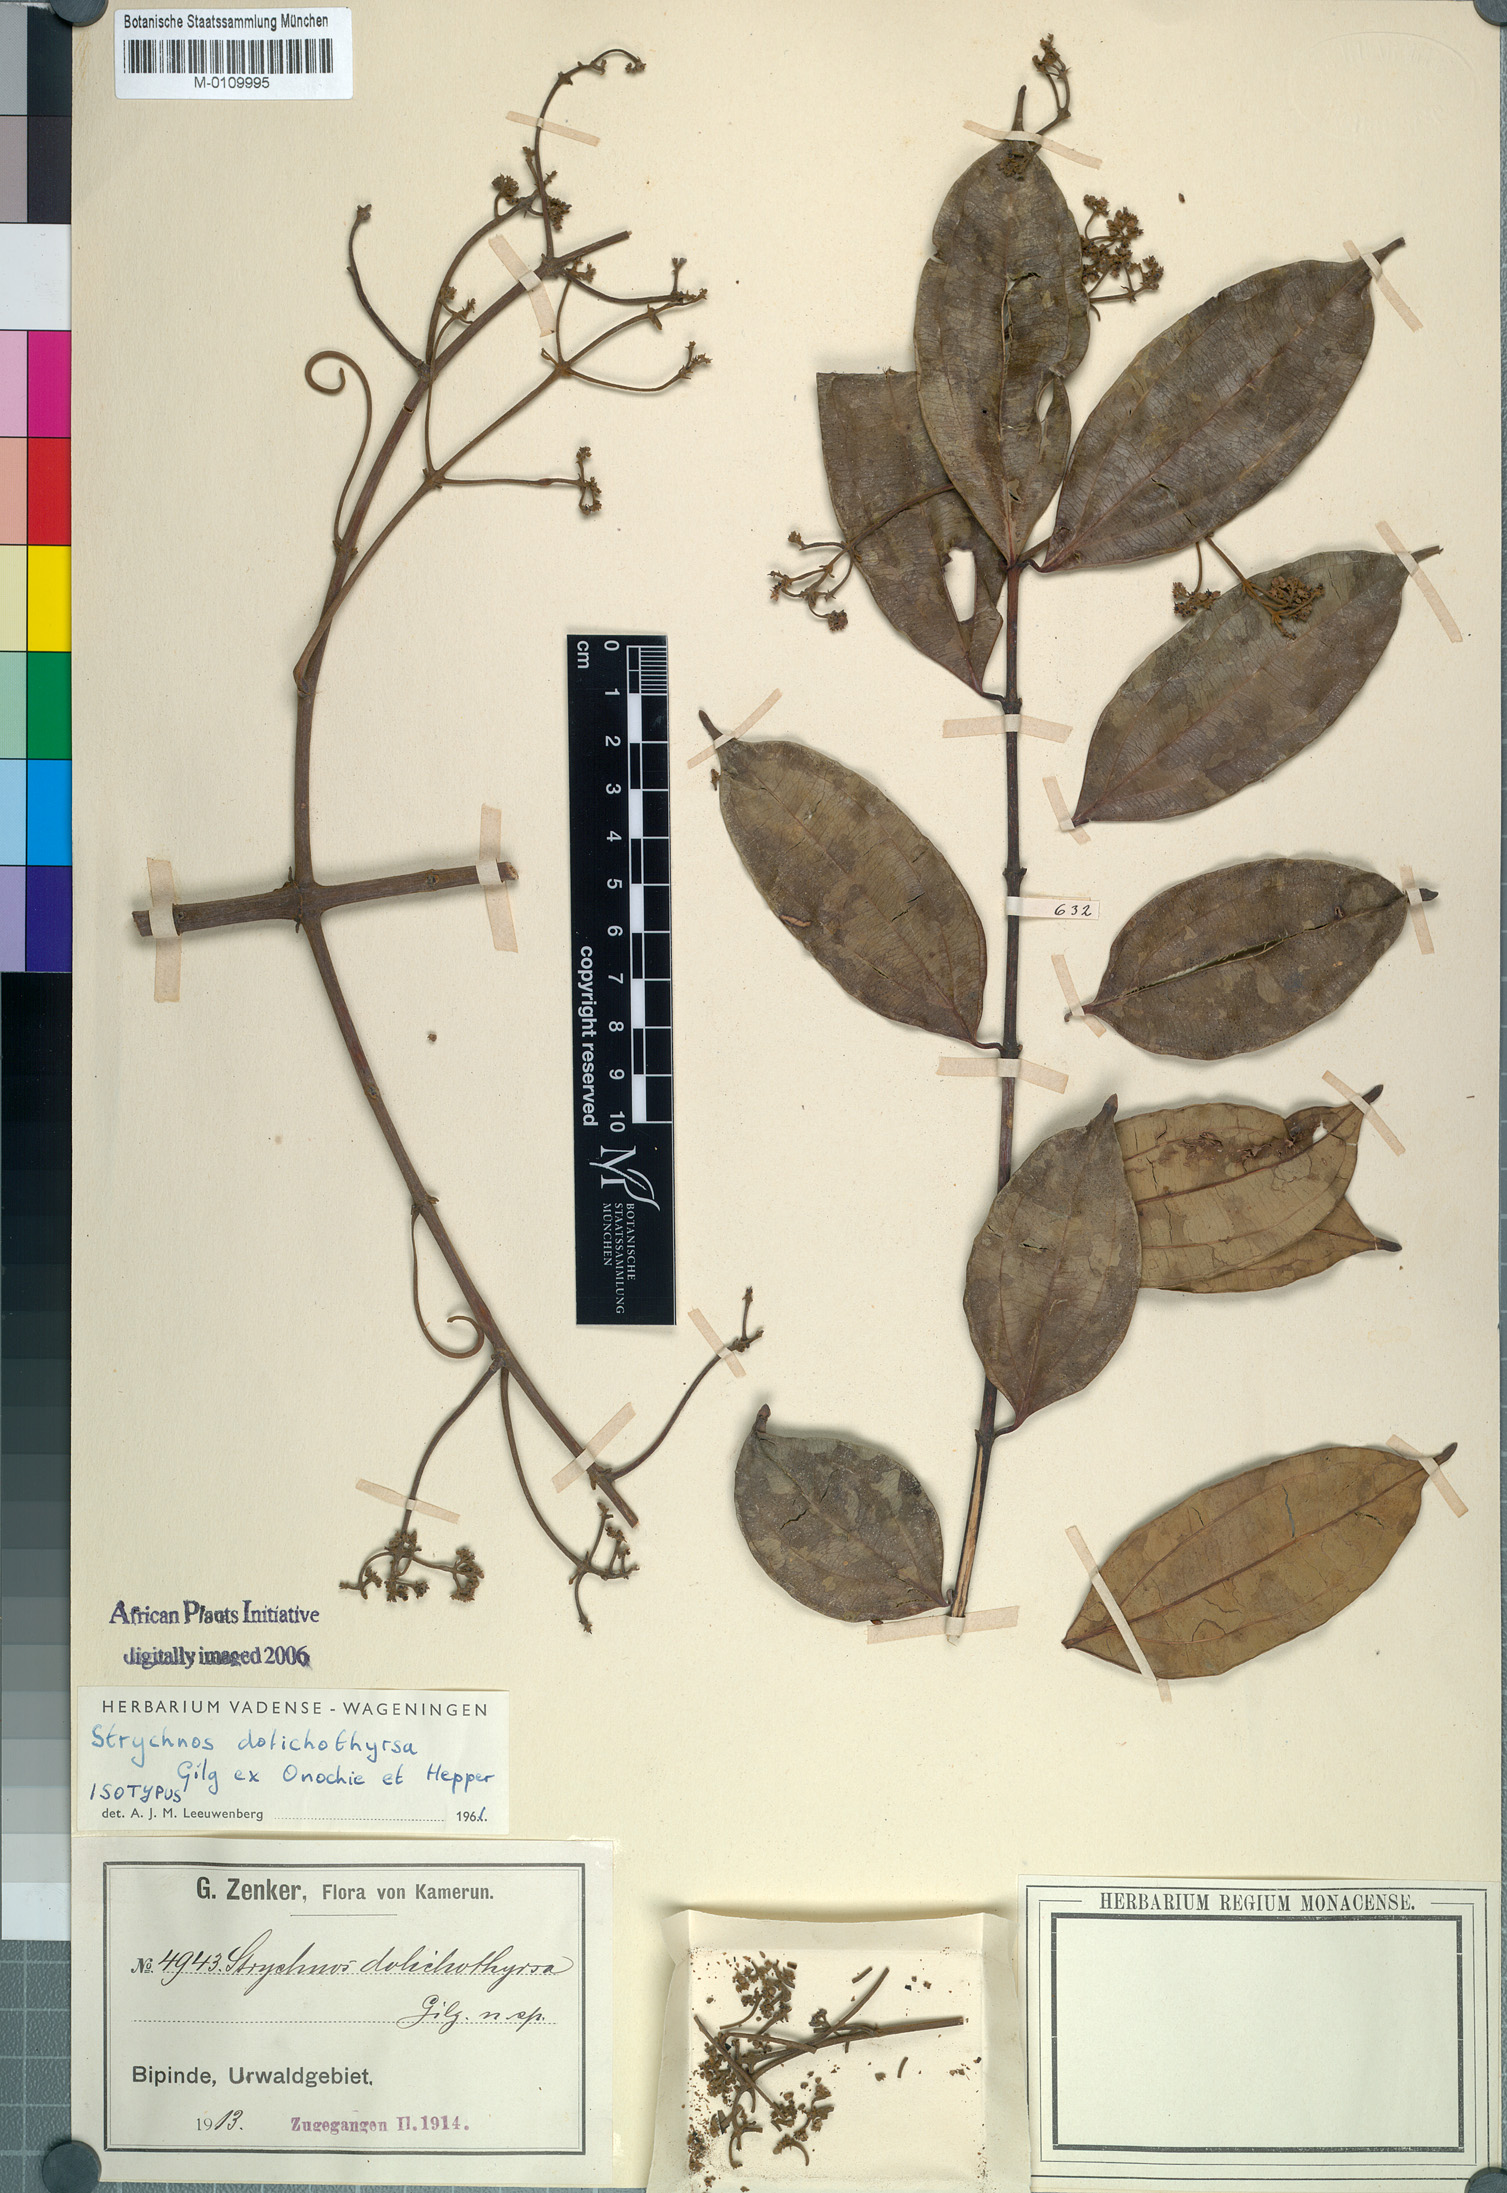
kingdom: Plantae
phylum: Tracheophyta
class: Magnoliopsida
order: Gentianales
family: Loganiaceae
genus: Strychnos
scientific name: Strychnos dolichothyrsa
